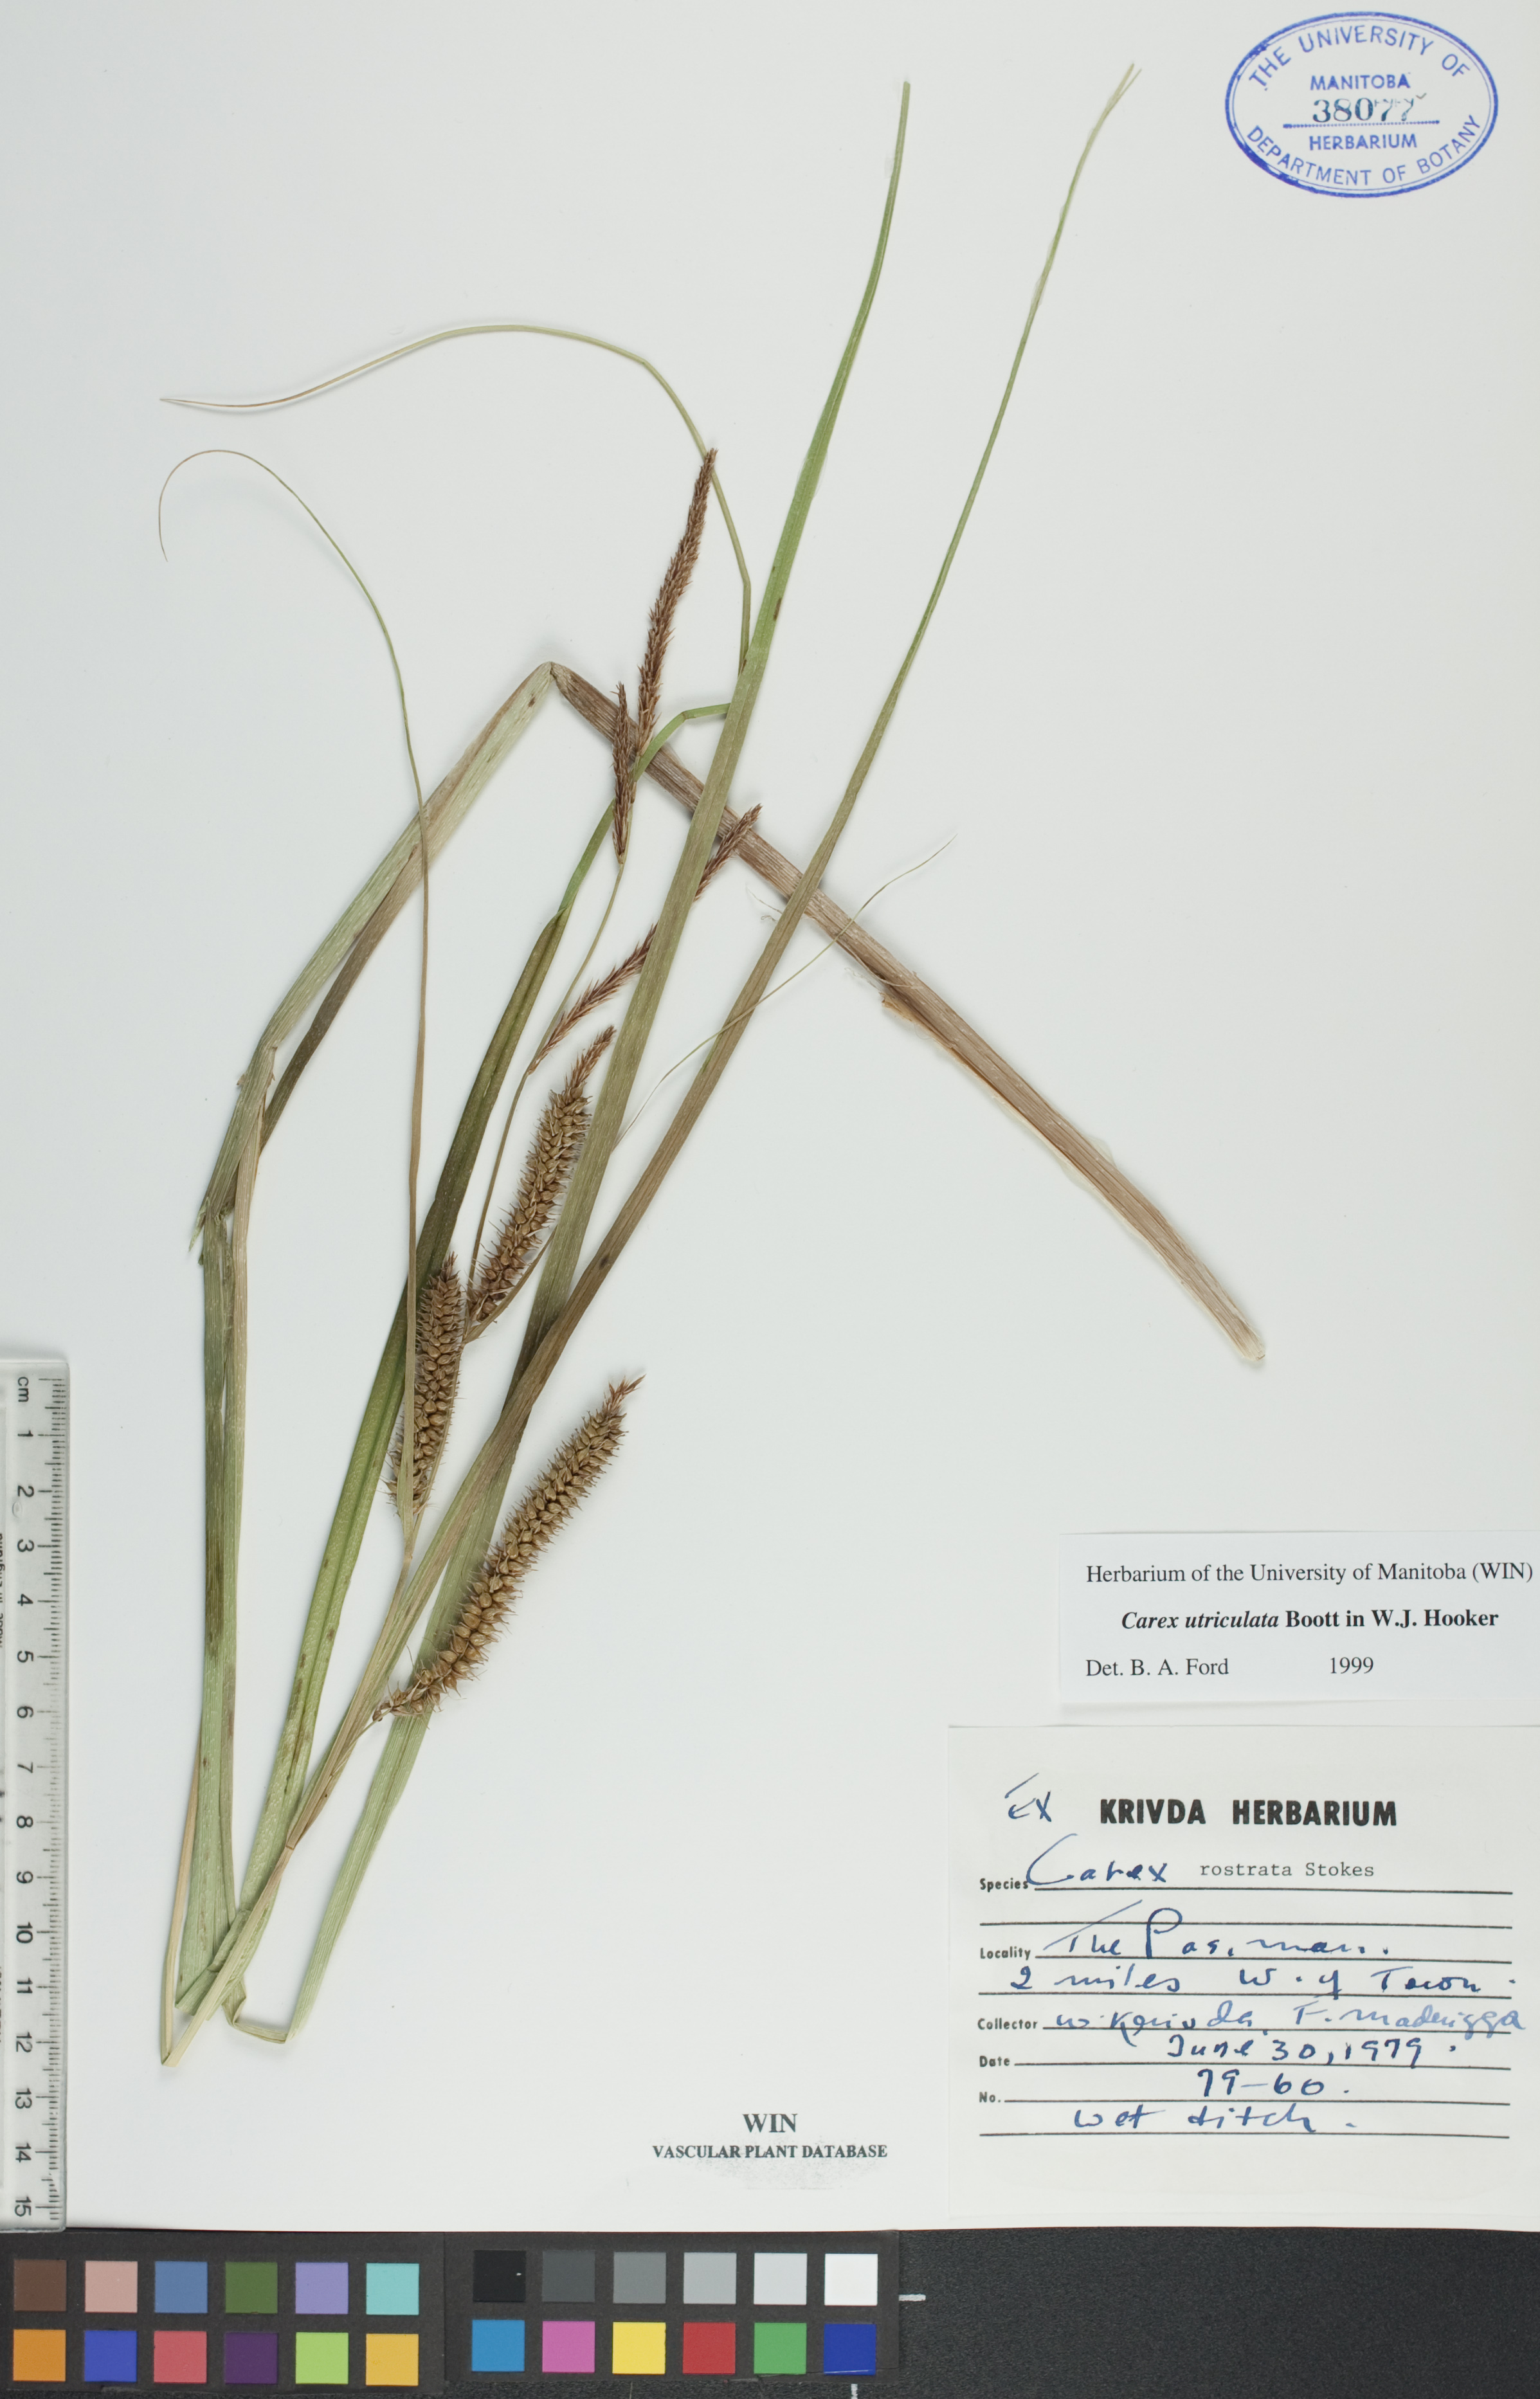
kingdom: Plantae
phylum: Tracheophyta
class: Liliopsida
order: Poales
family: Cyperaceae
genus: Carex
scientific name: Carex utriculata
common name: Beaked sedge
